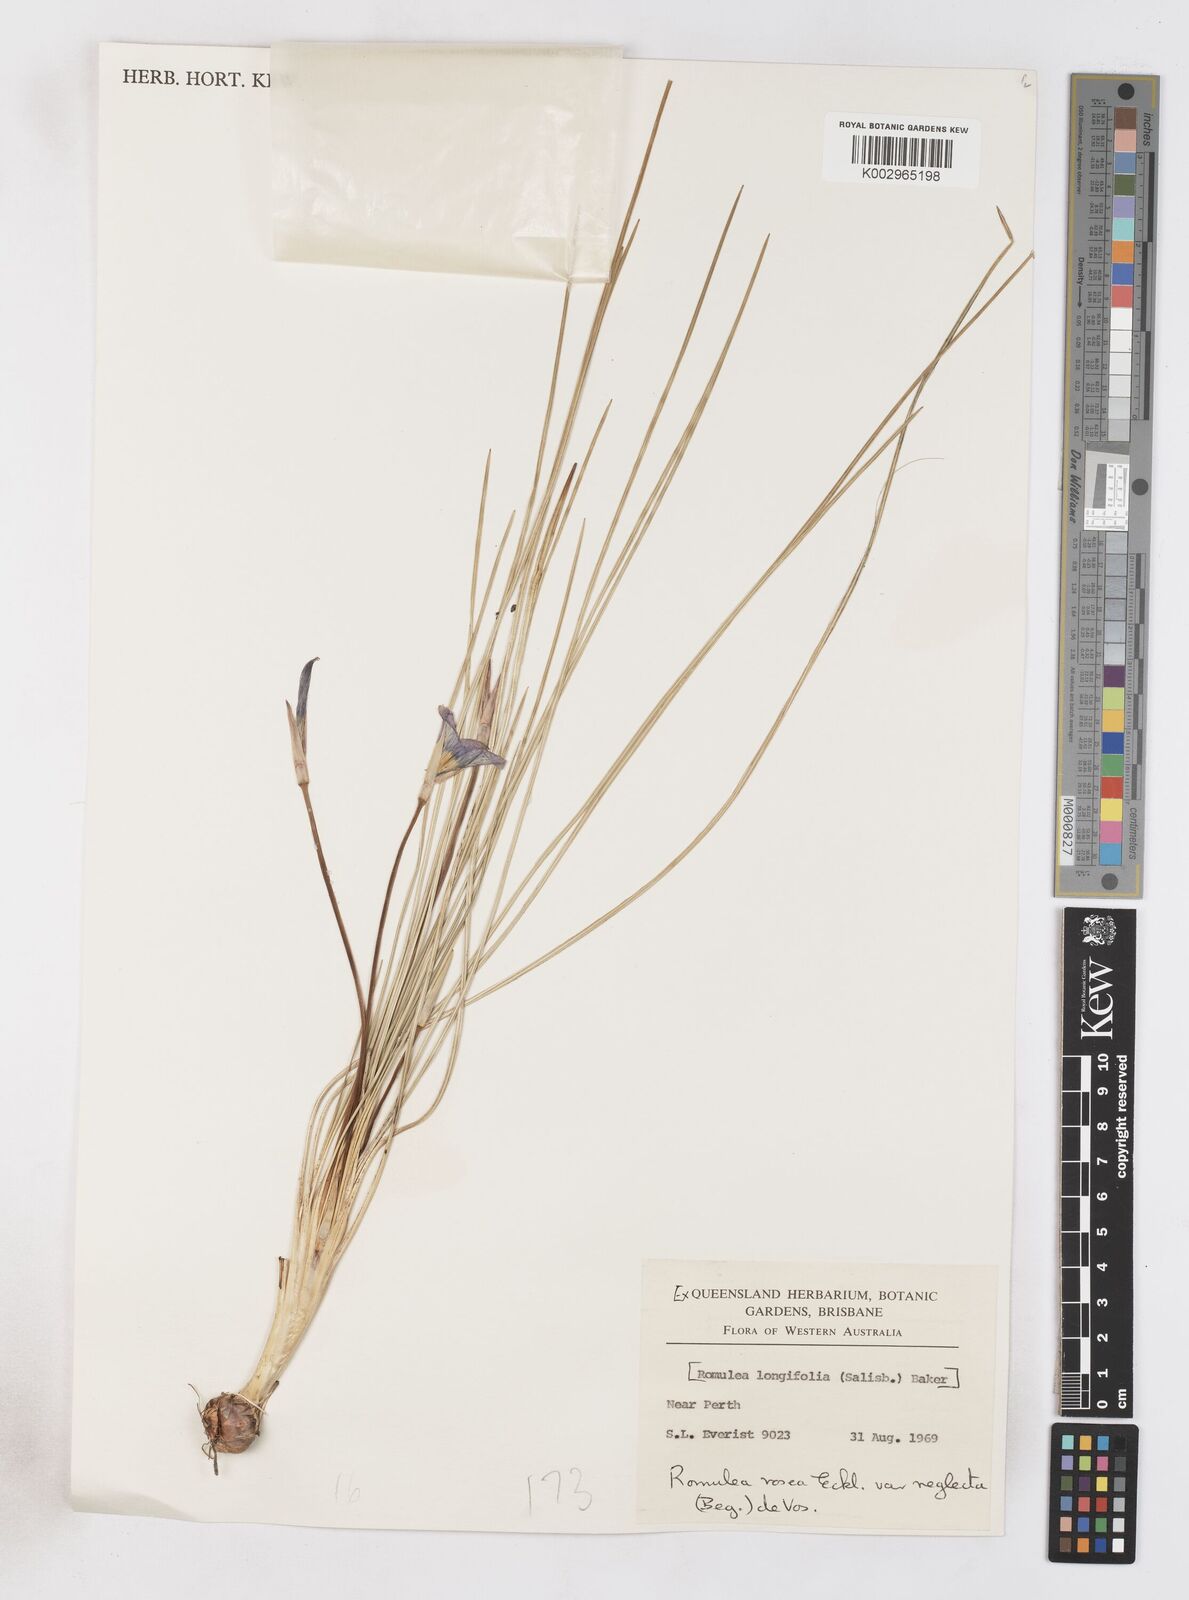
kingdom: Plantae
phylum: Tracheophyta
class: Liliopsida
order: Asparagales
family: Iridaceae
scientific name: Iridaceae
